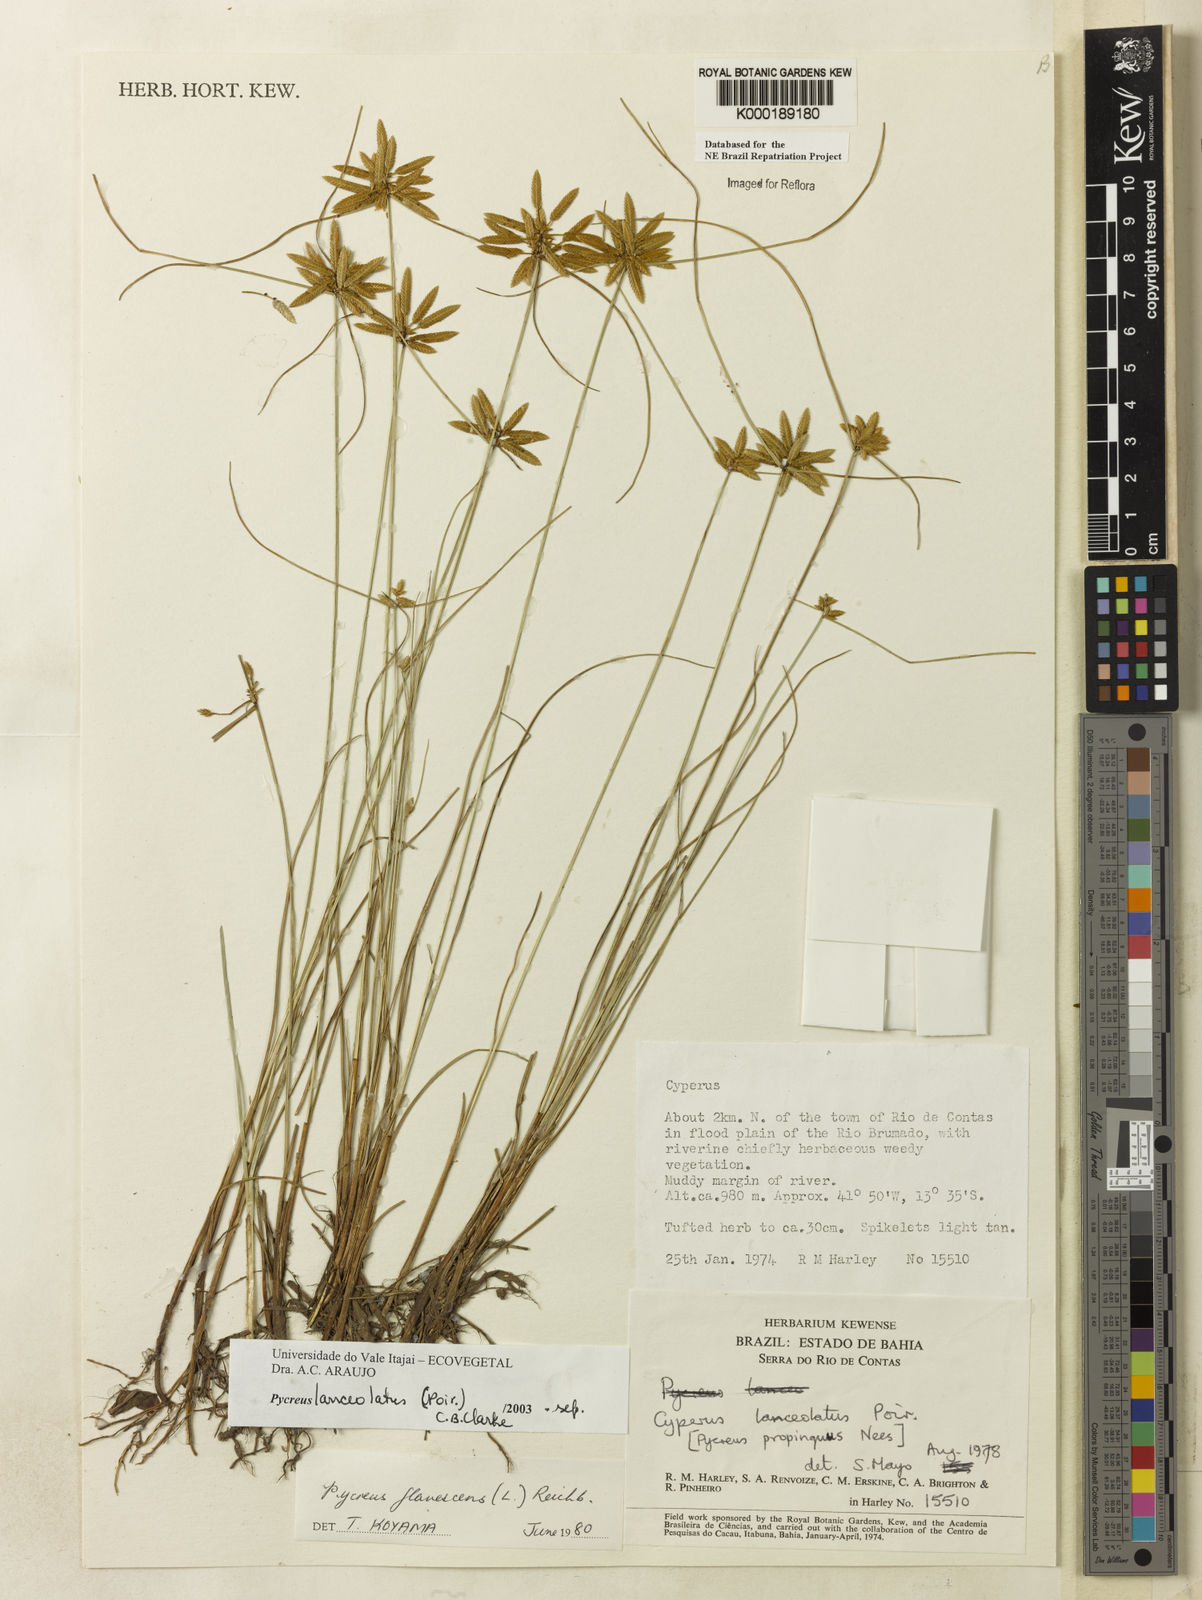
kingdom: Plantae
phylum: Tracheophyta
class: Liliopsida
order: Poales
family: Cyperaceae
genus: Cyperus
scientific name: Cyperus lanceolatus
